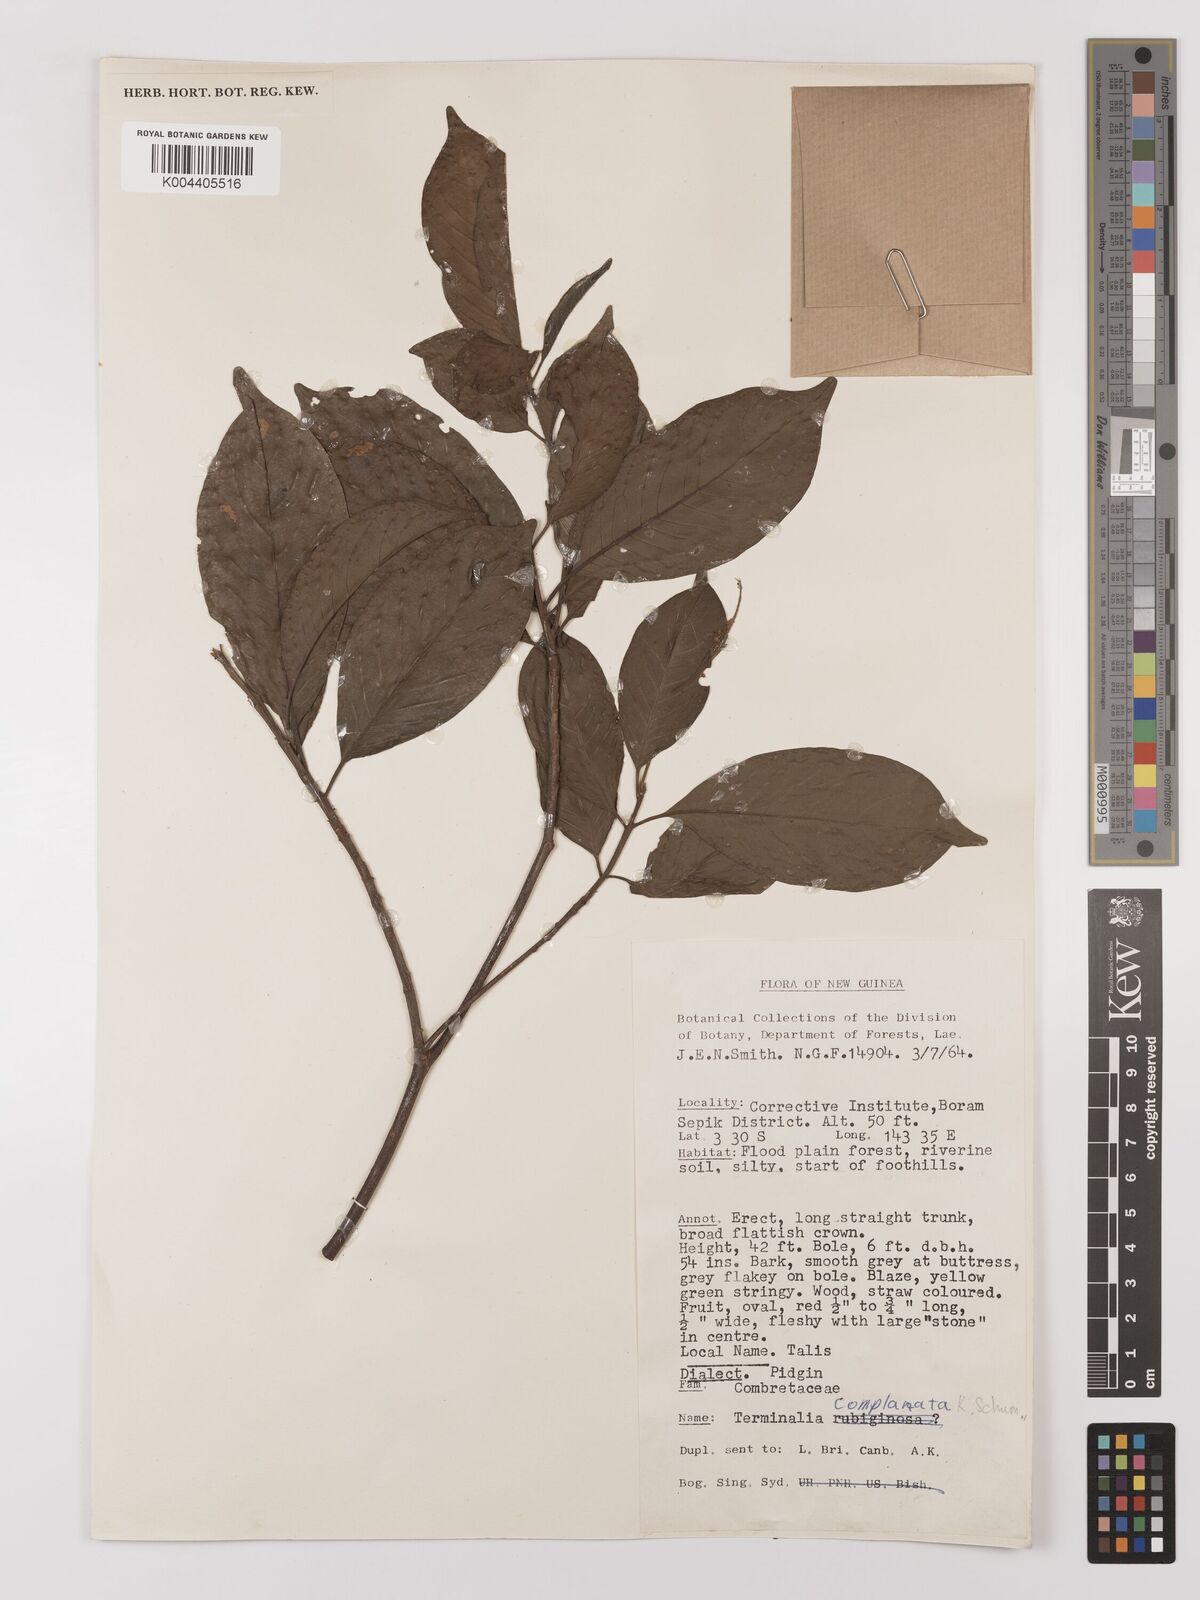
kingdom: Plantae
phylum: Tracheophyta
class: Magnoliopsida
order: Myrtales
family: Combretaceae
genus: Terminalia
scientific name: Terminalia complanata
